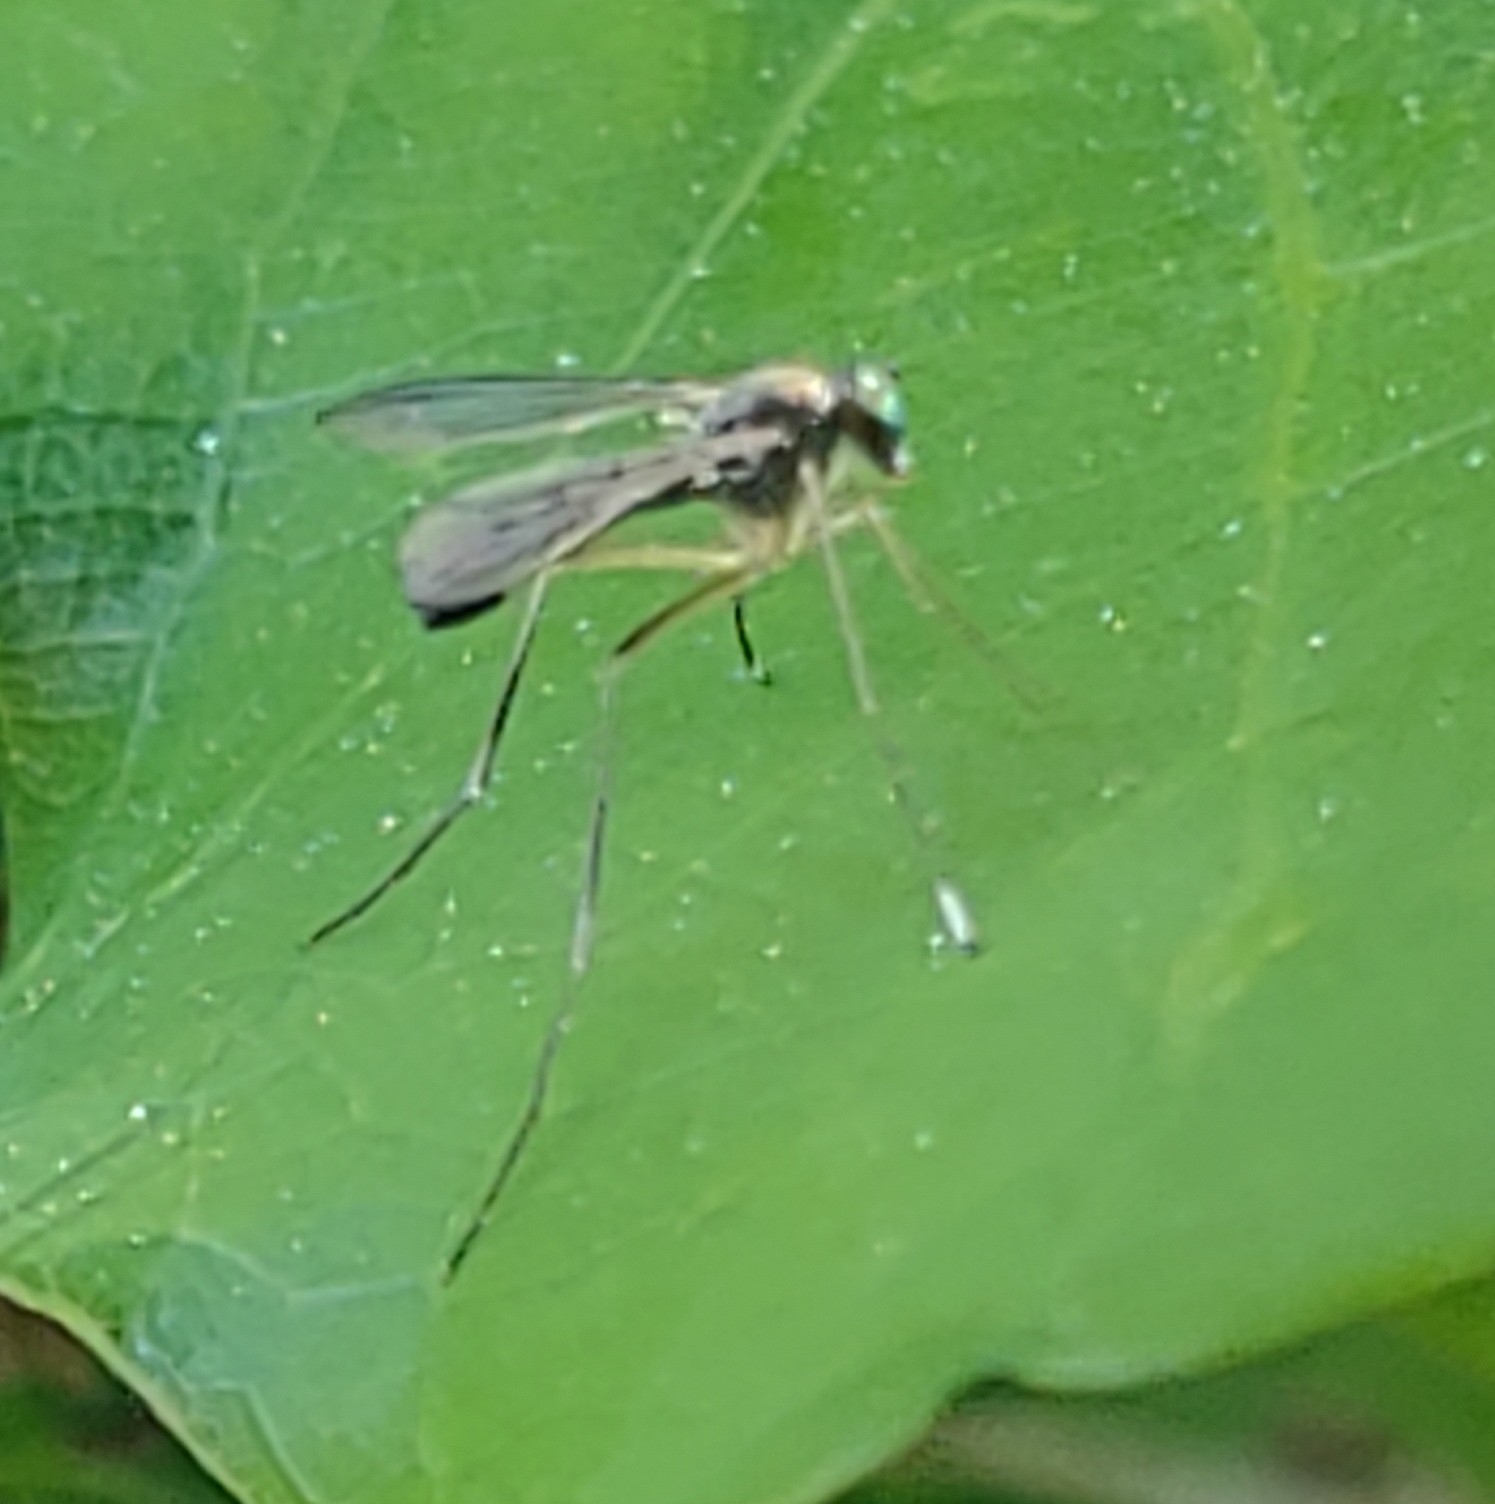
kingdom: Animalia
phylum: Arthropoda
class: Insecta
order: Diptera
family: Dolichopodidae
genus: Sciapus
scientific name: Sciapus platypterus
